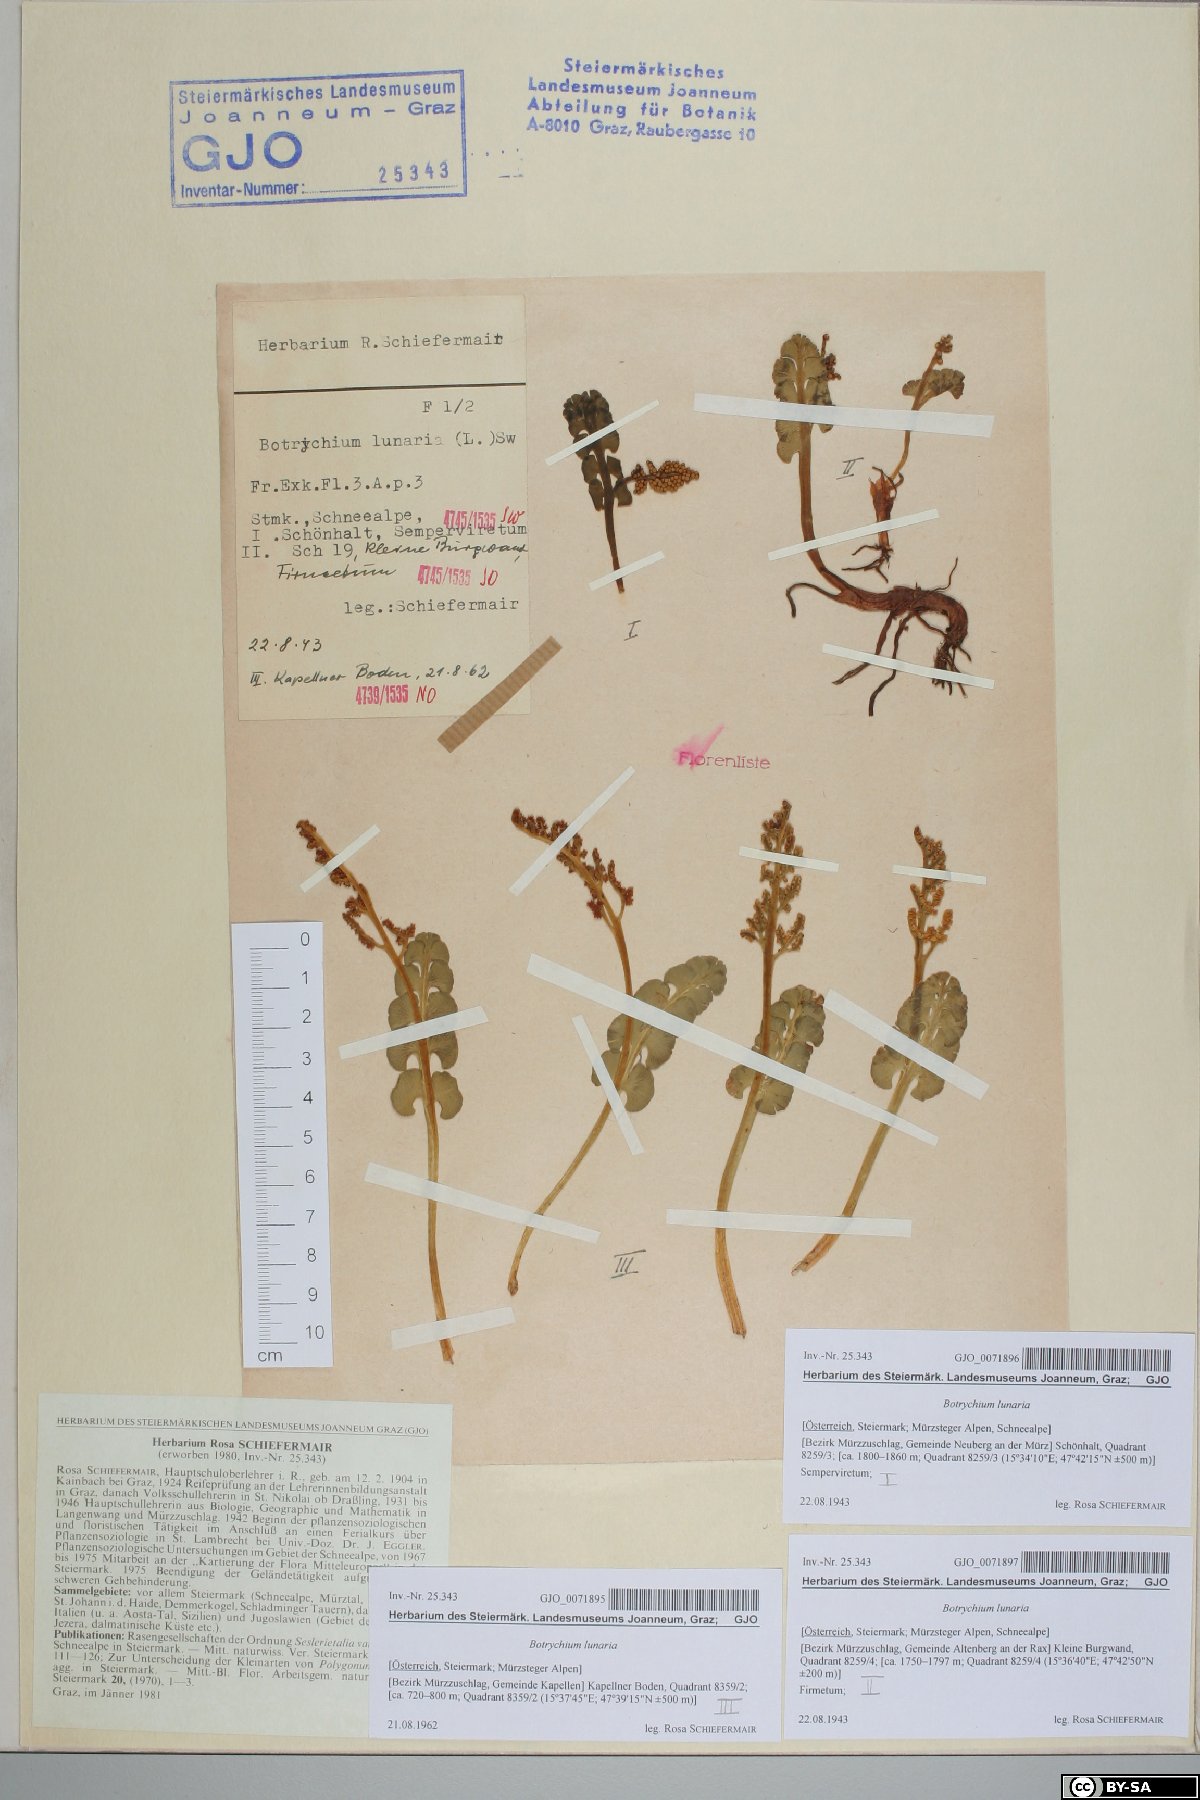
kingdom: Plantae
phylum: Tracheophyta
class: Polypodiopsida
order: Ophioglossales
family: Ophioglossaceae
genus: Botrychium
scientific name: Botrychium lunaria
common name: Moonwort
